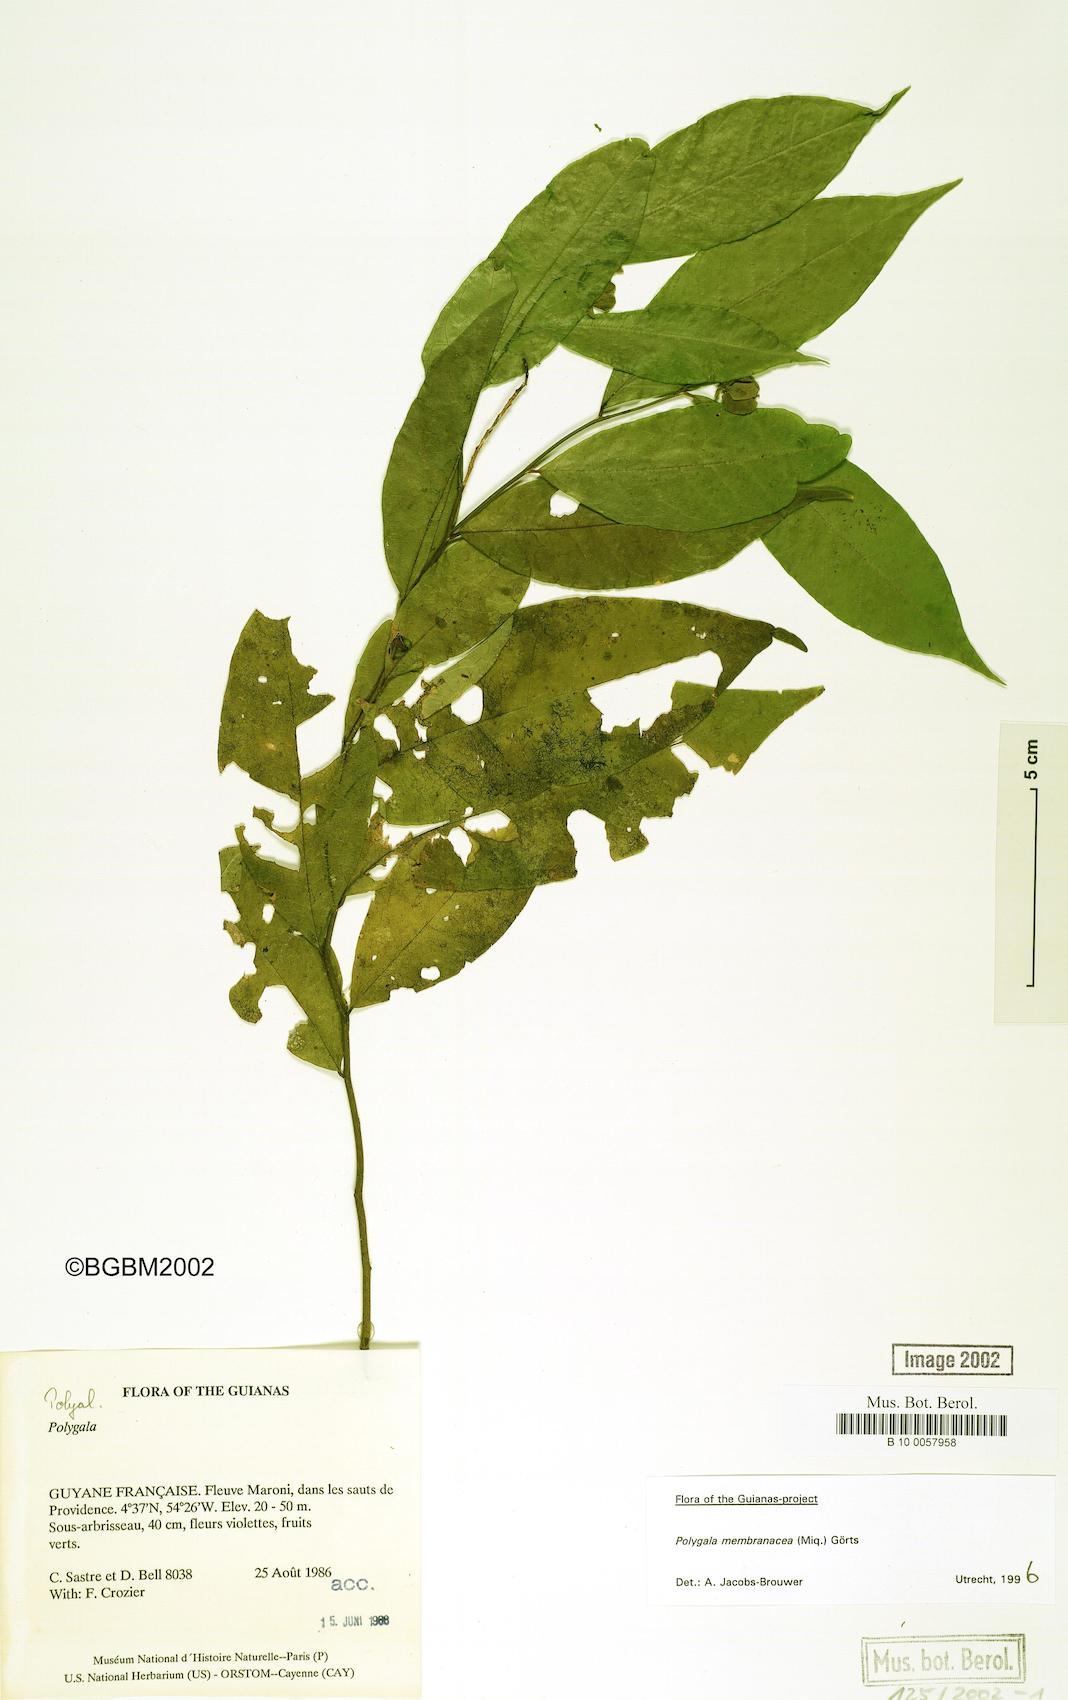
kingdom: Plantae
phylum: Tracheophyta
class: Magnoliopsida
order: Fabales
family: Polygalaceae
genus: Polygala
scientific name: Polygala membranacea
